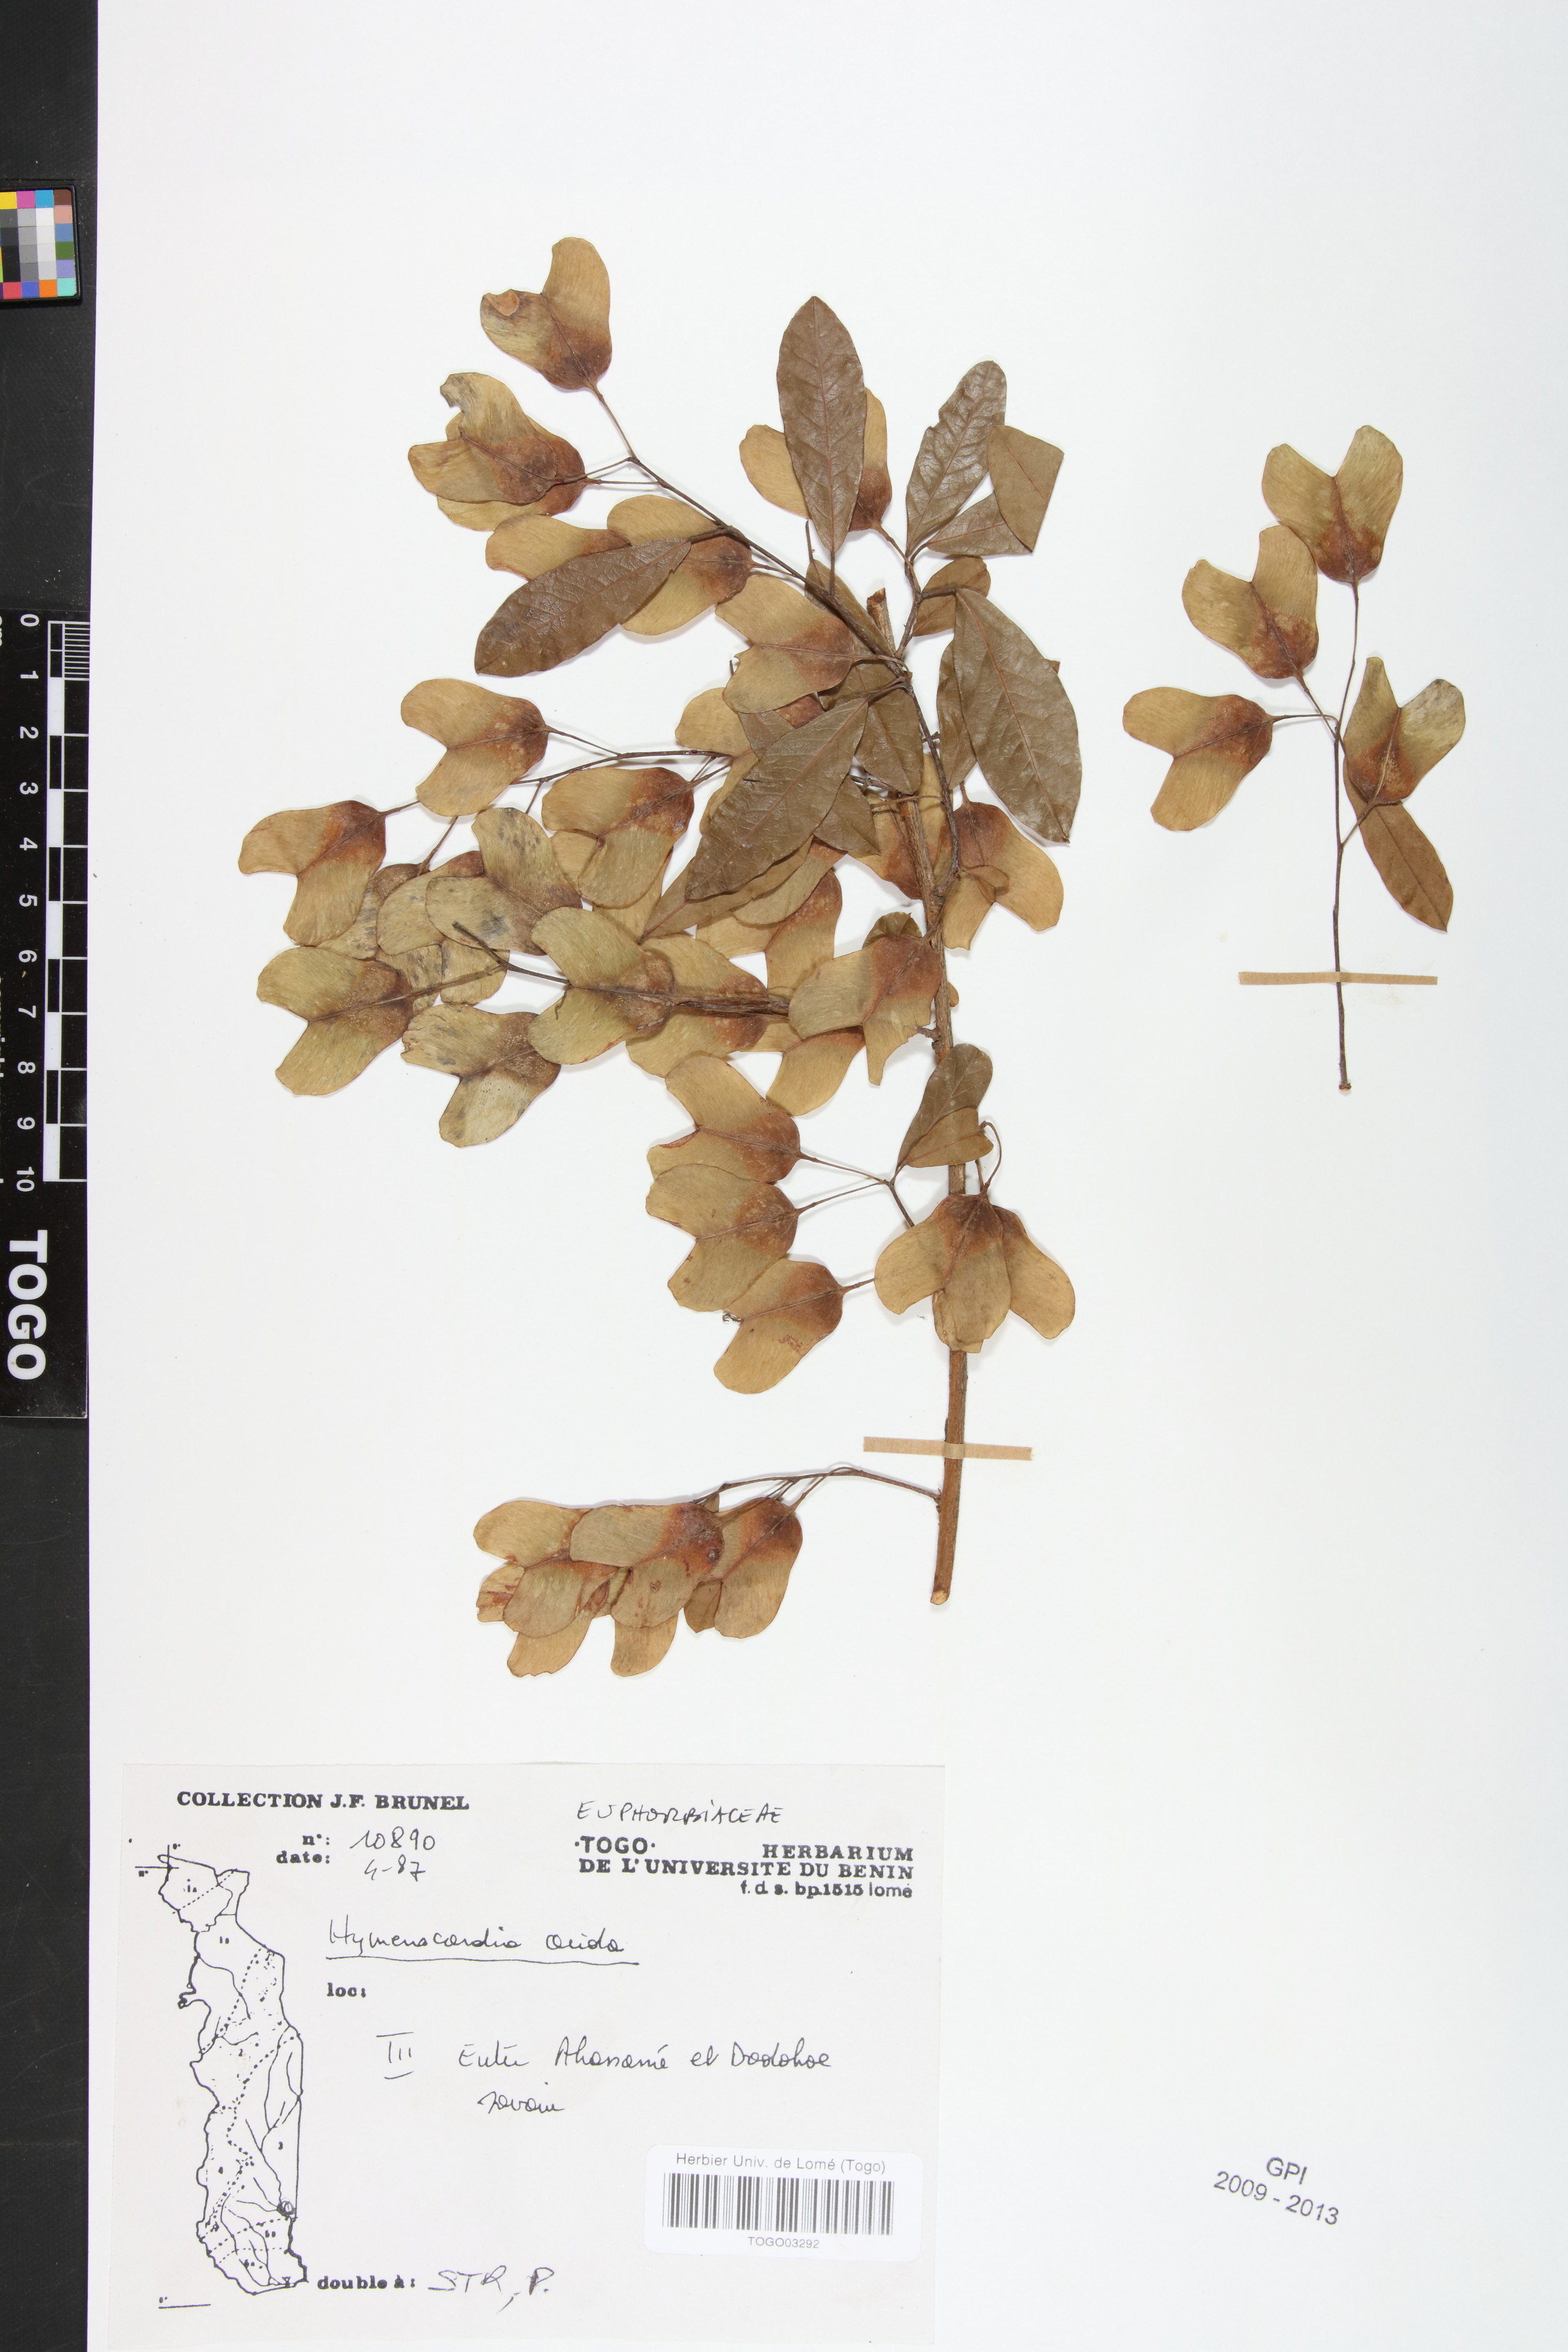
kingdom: Plantae
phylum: Tracheophyta
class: Magnoliopsida
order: Malpighiales
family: Phyllanthaceae
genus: Hymenocardia
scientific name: Hymenocardia acida
